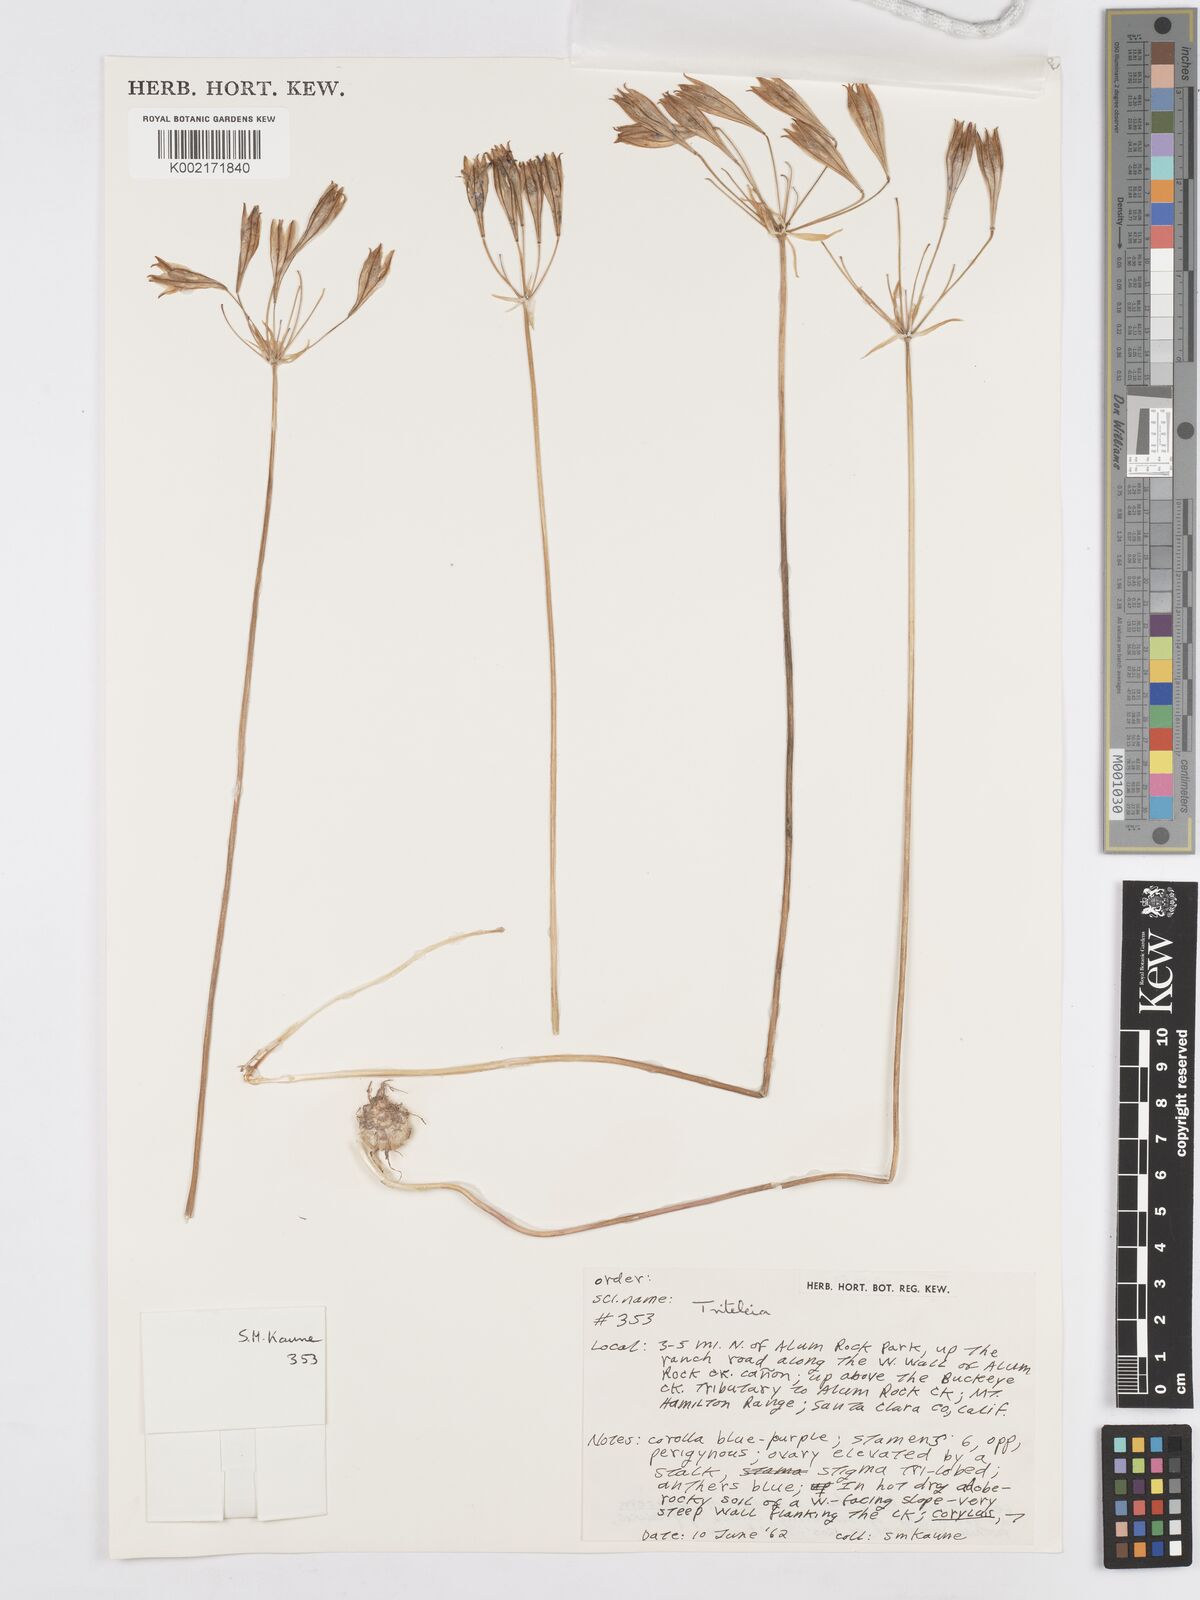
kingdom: Plantae
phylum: Tracheophyta
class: Liliopsida
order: Asparagales
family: Asparagaceae
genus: Triteleia
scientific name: Triteleia
